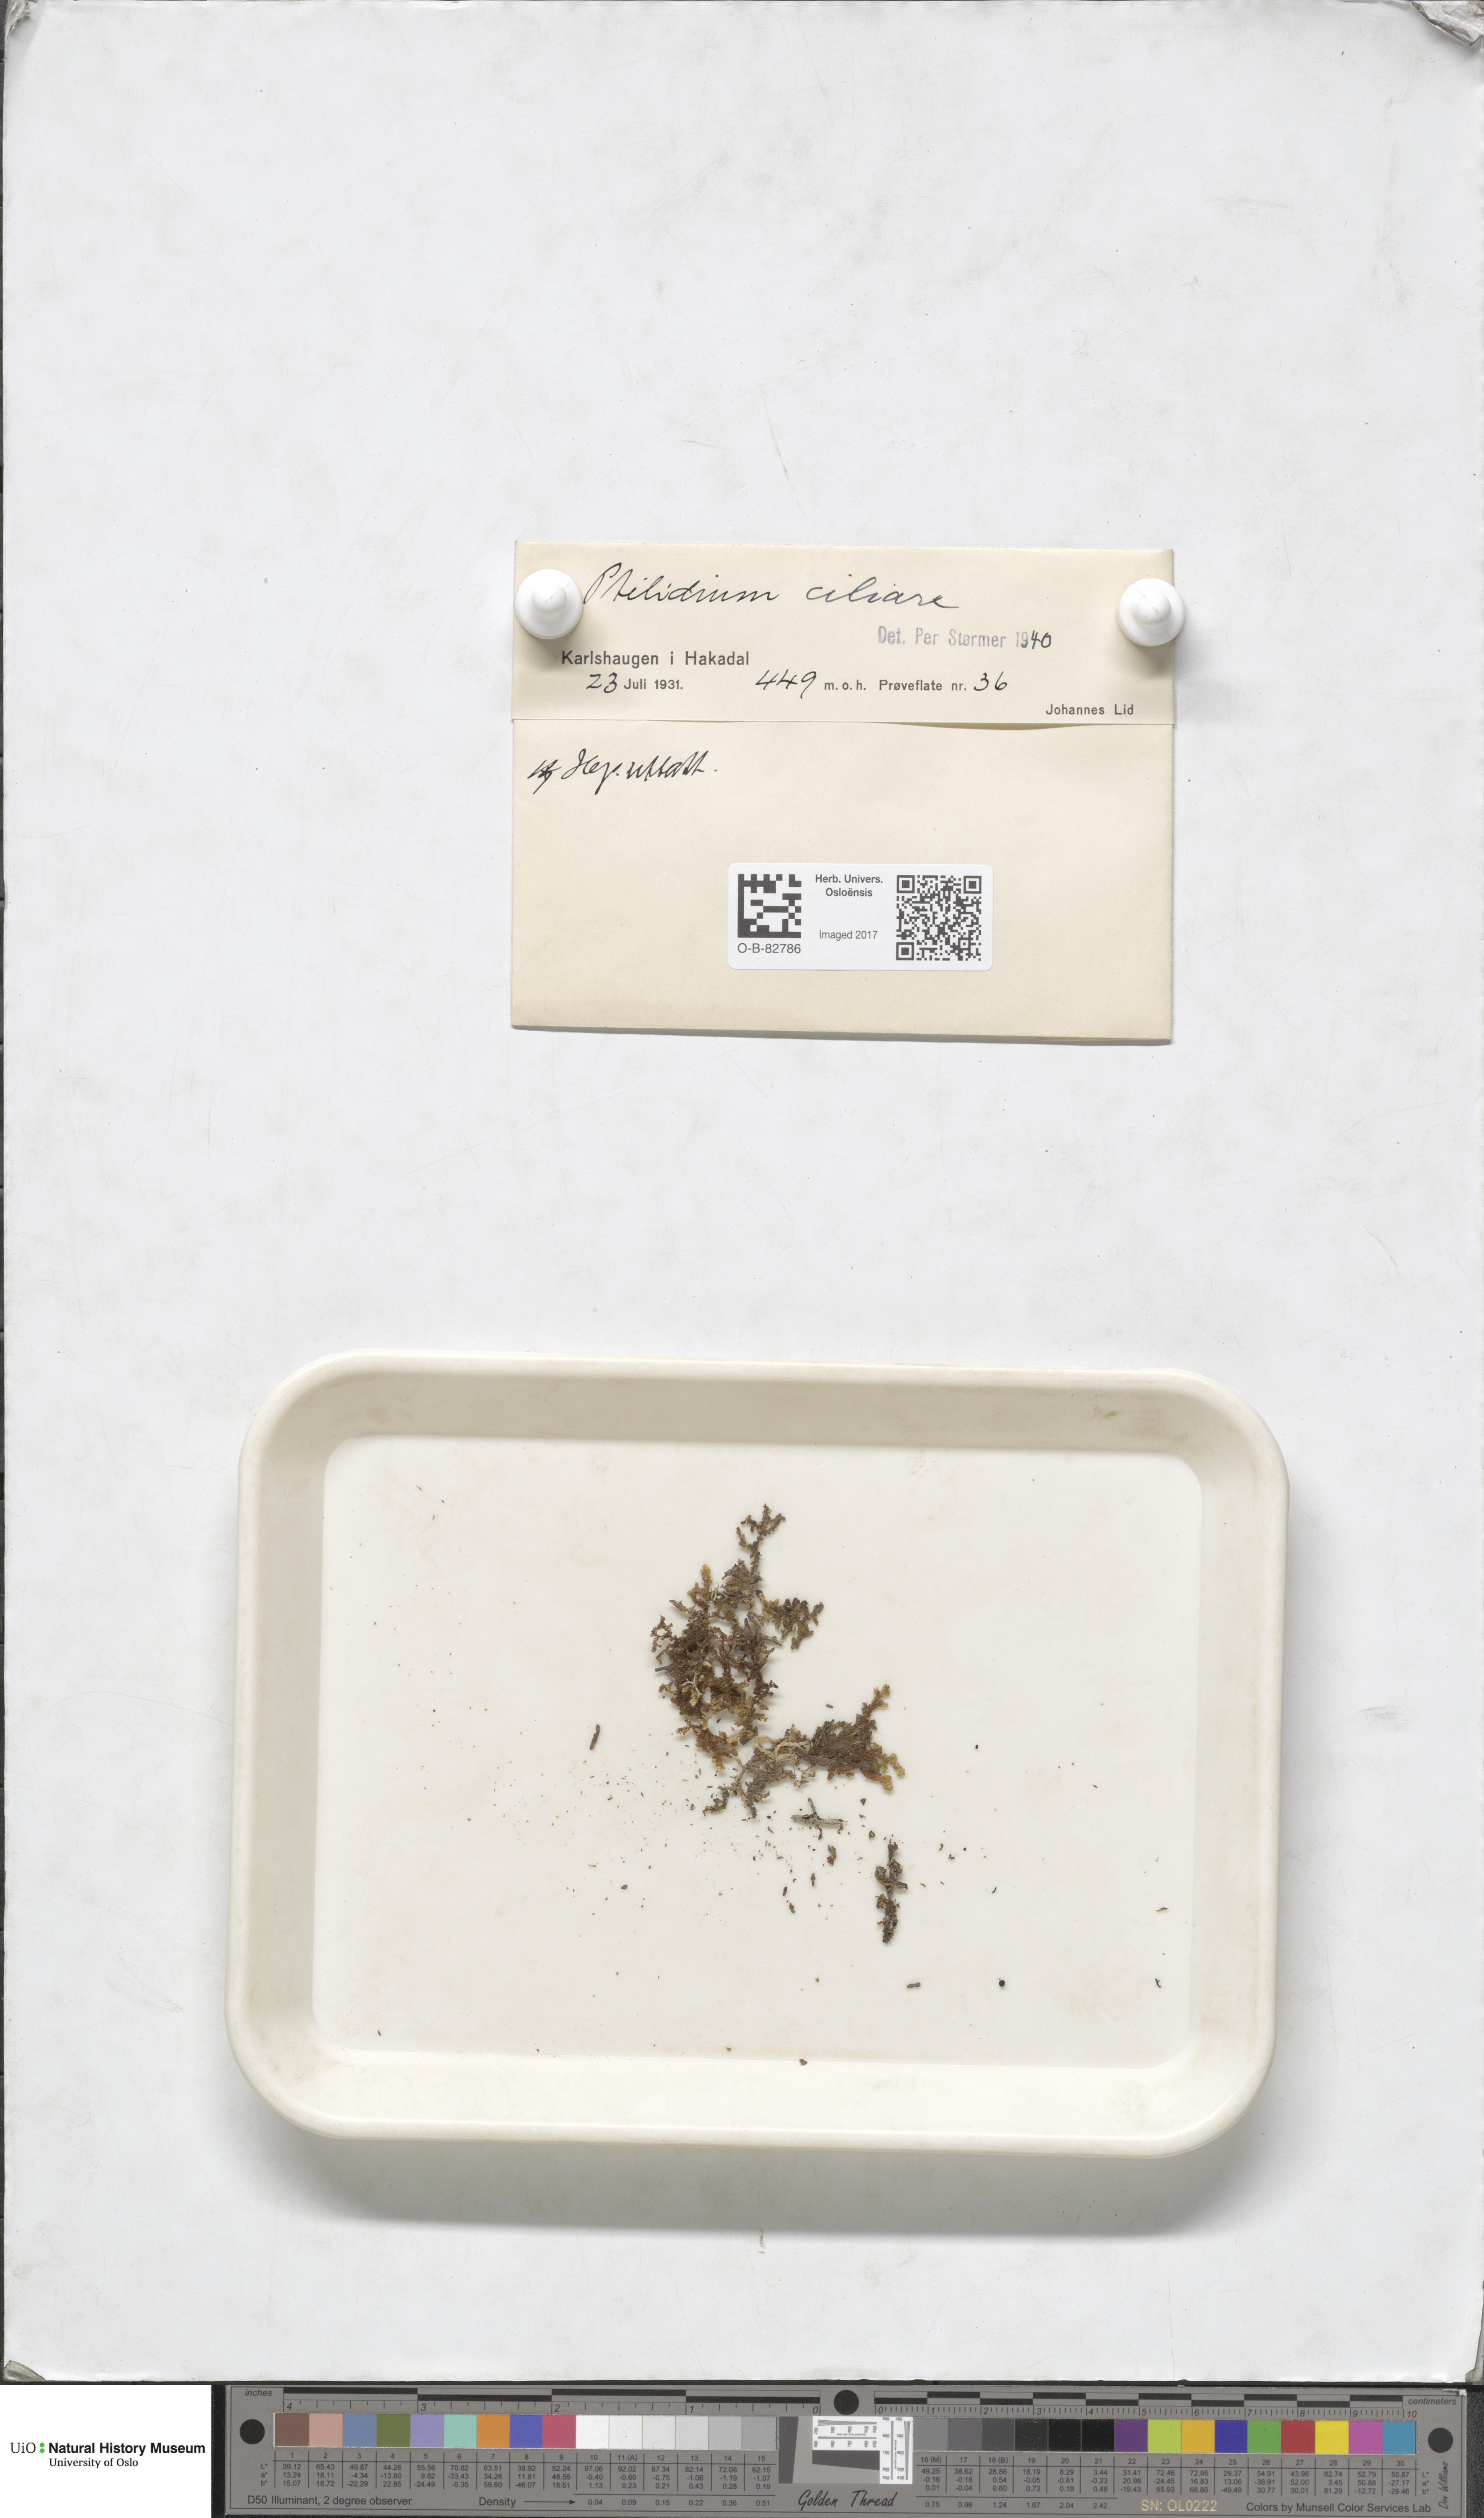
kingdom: Plantae
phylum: Marchantiophyta
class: Jungermanniopsida
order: Ptilidiales
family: Ptilidiaceae
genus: Ptilidium
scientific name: Ptilidium ciliare
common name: Ciliate fringewort
